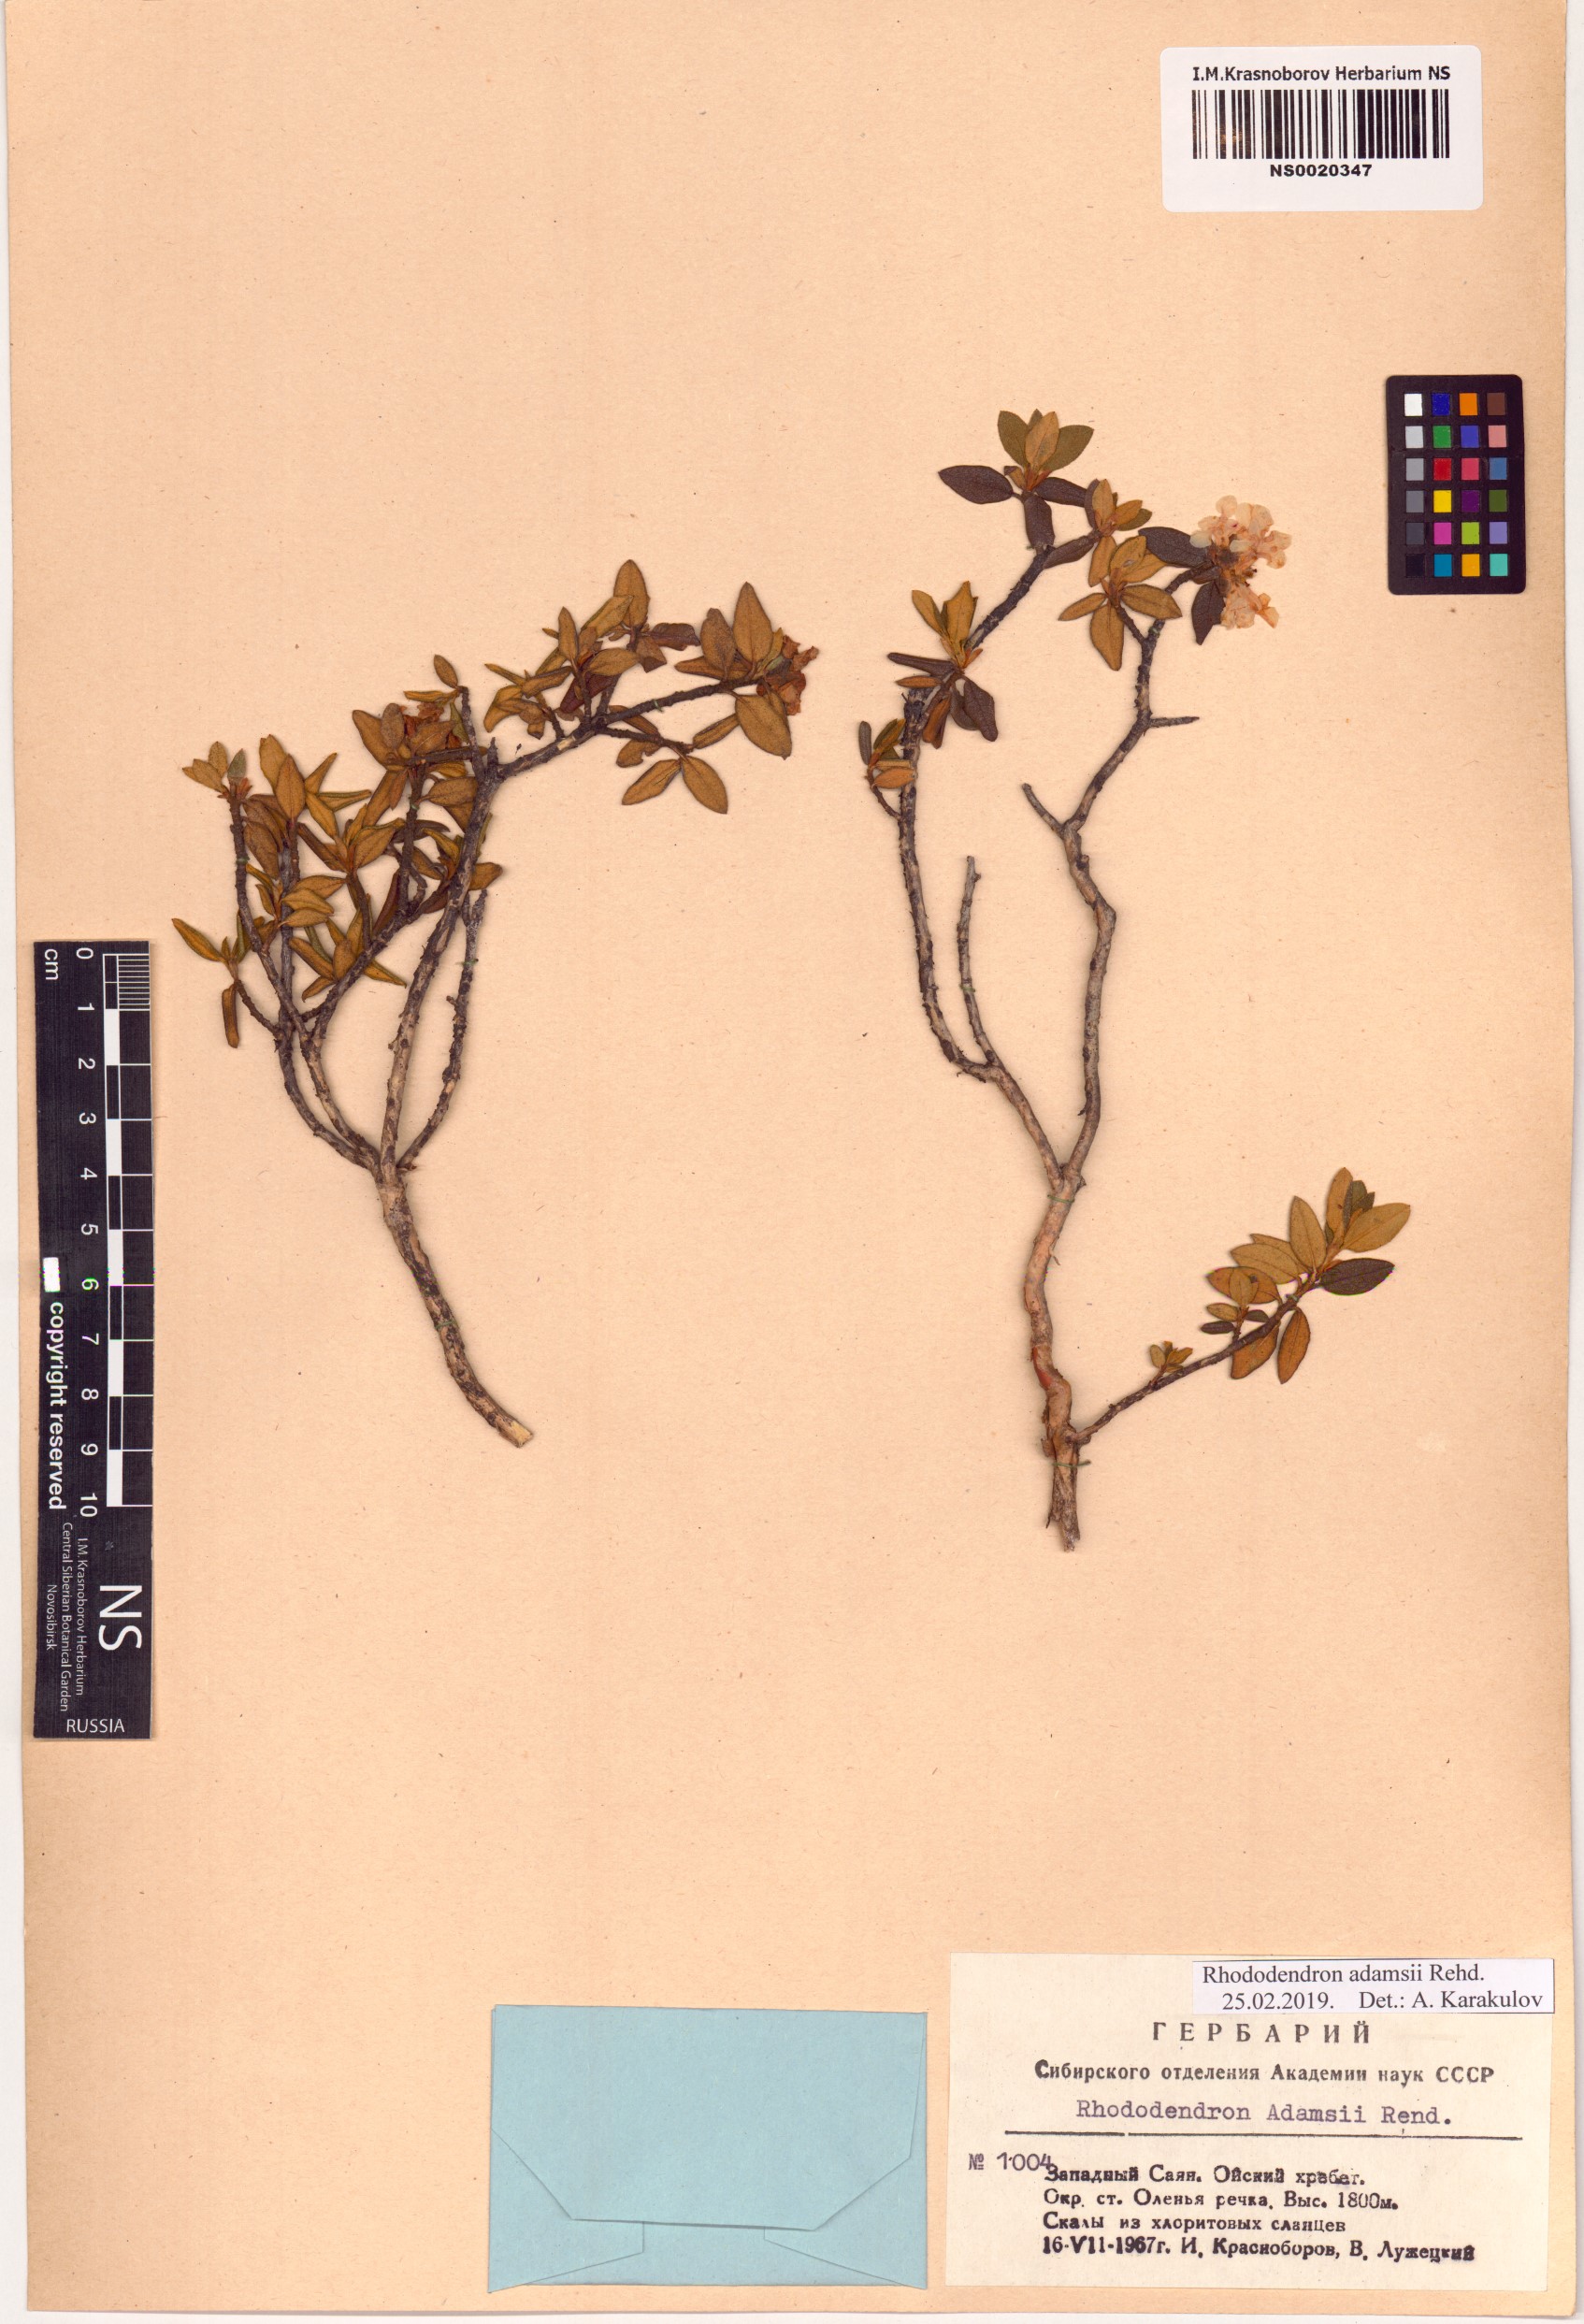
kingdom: Plantae
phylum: Tracheophyta
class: Magnoliopsida
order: Ericales
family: Ericaceae
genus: Rhododendron
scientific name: Rhododendron adamsii
